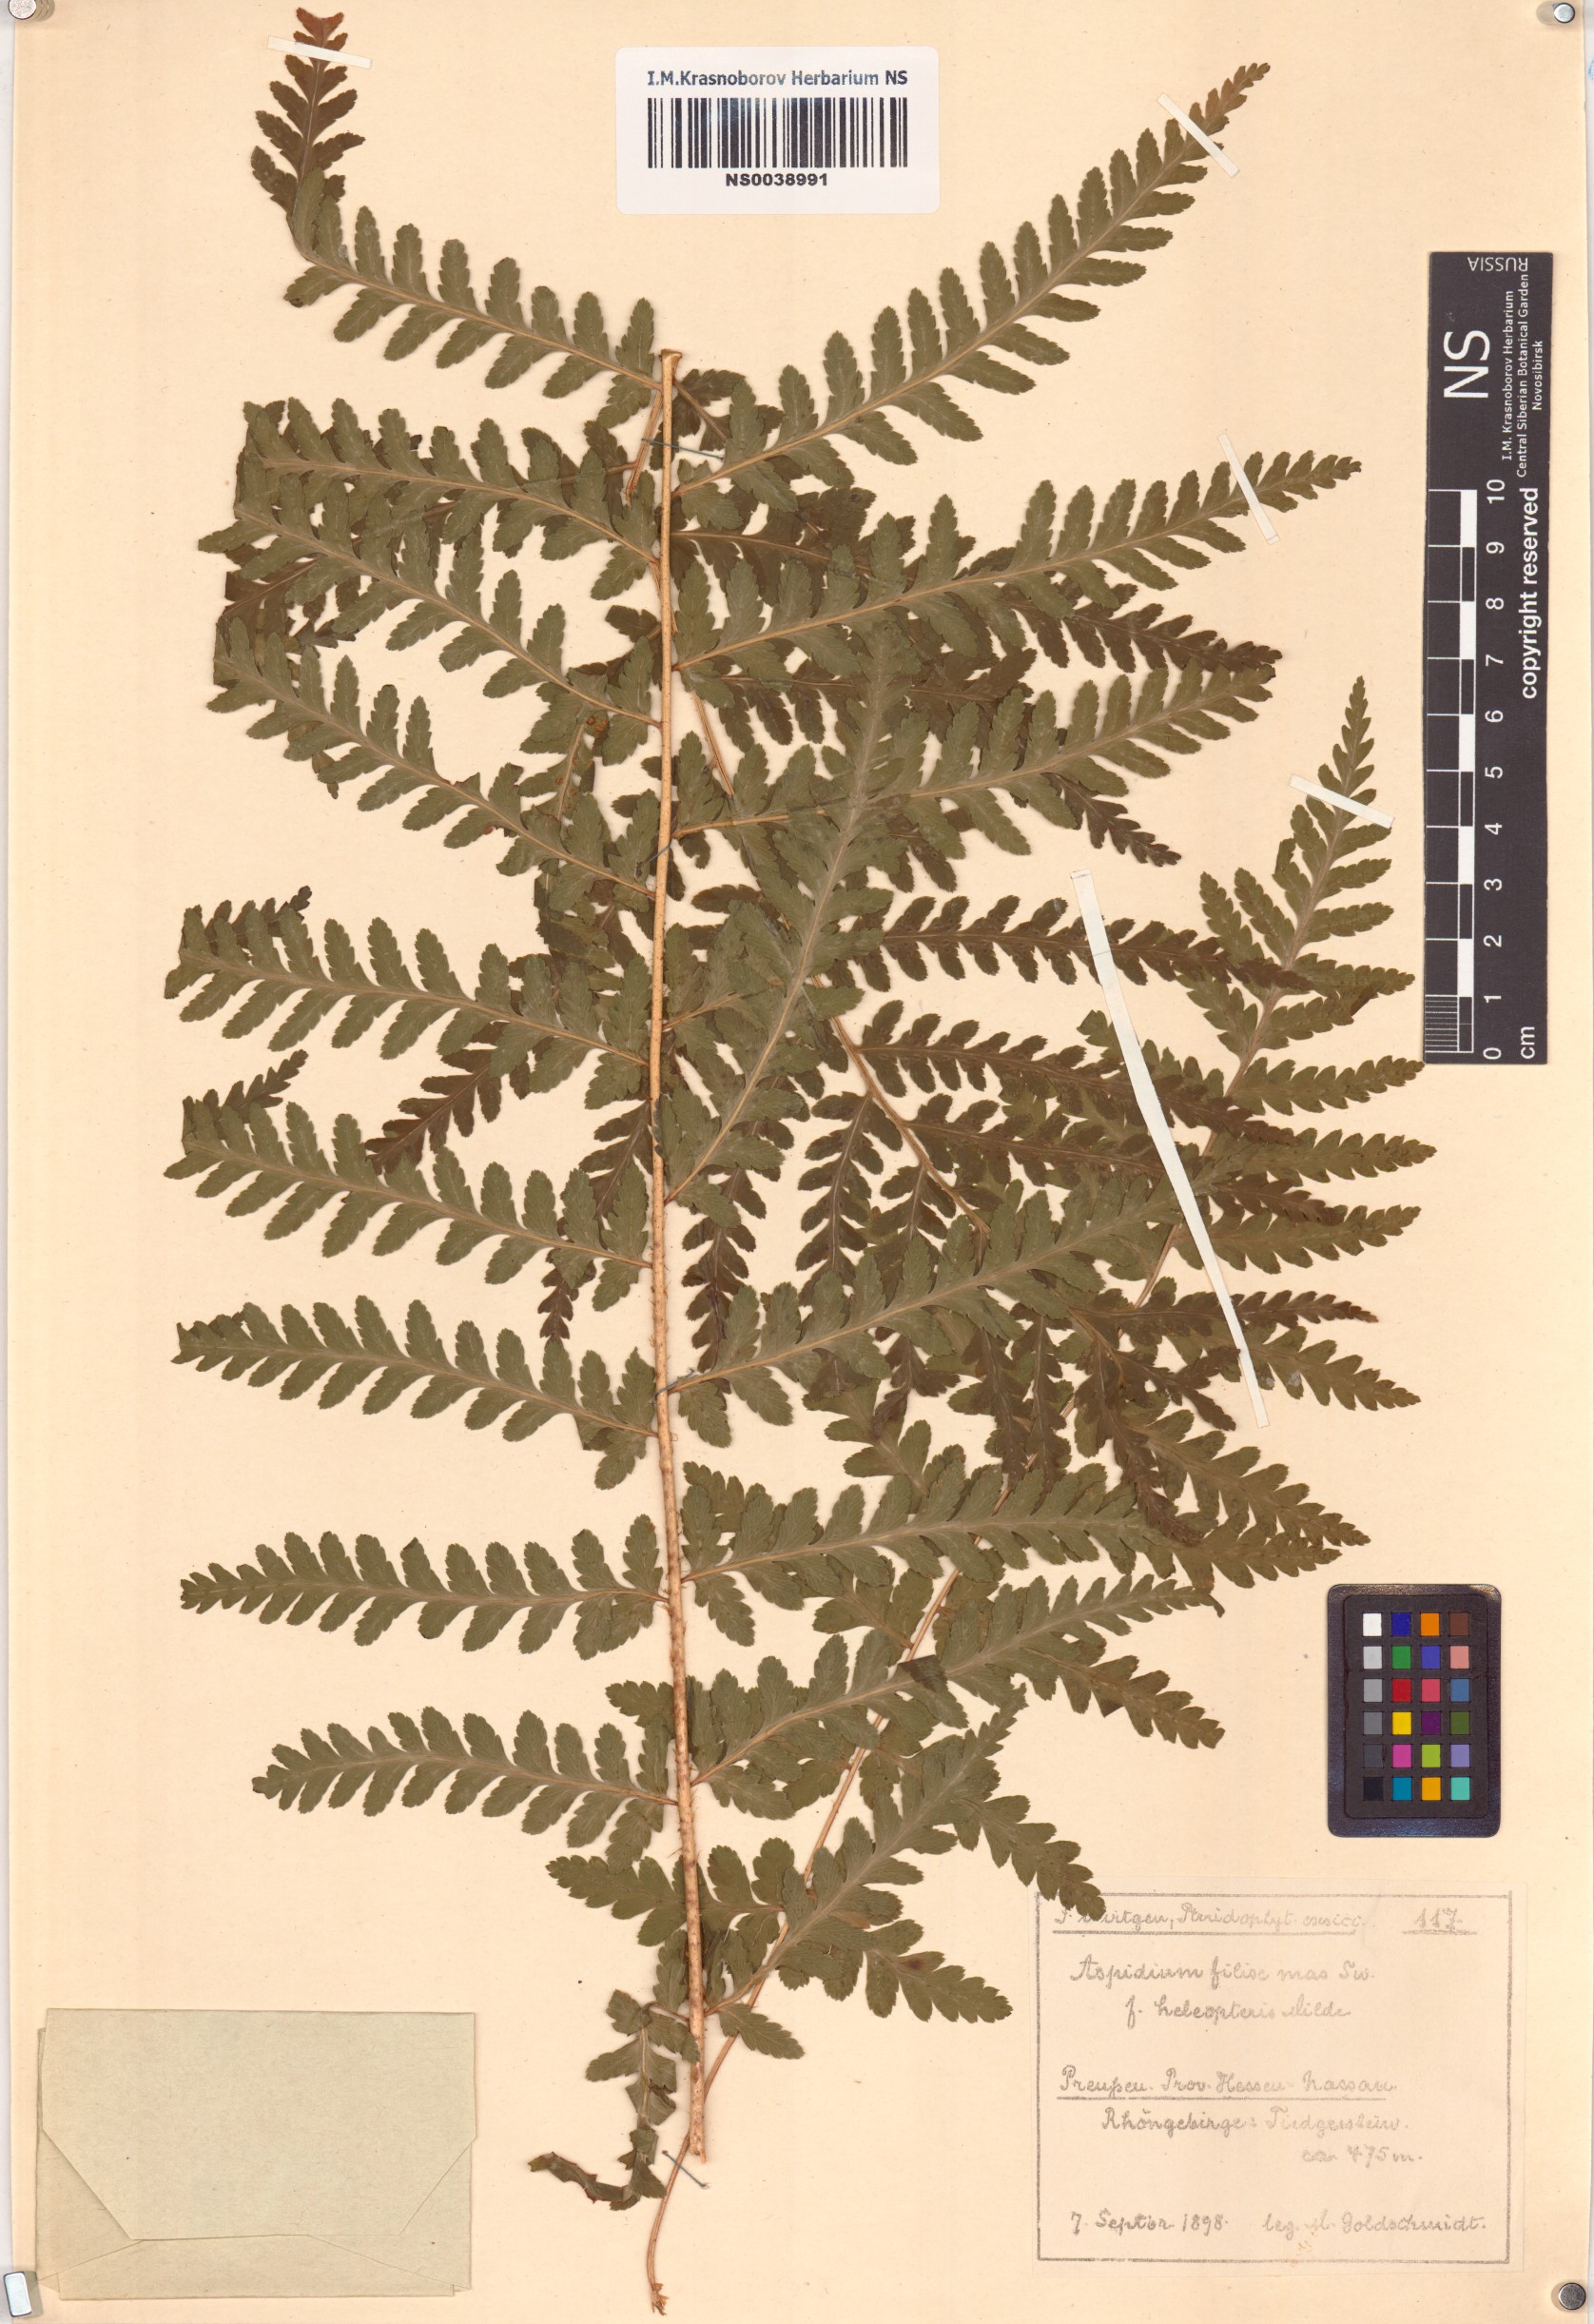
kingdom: Plantae
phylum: Tracheophyta
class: Polypodiopsida
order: Polypodiales
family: Dryopteridaceae
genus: Dryopteris
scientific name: Dryopteris filix-mas
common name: Male fern
